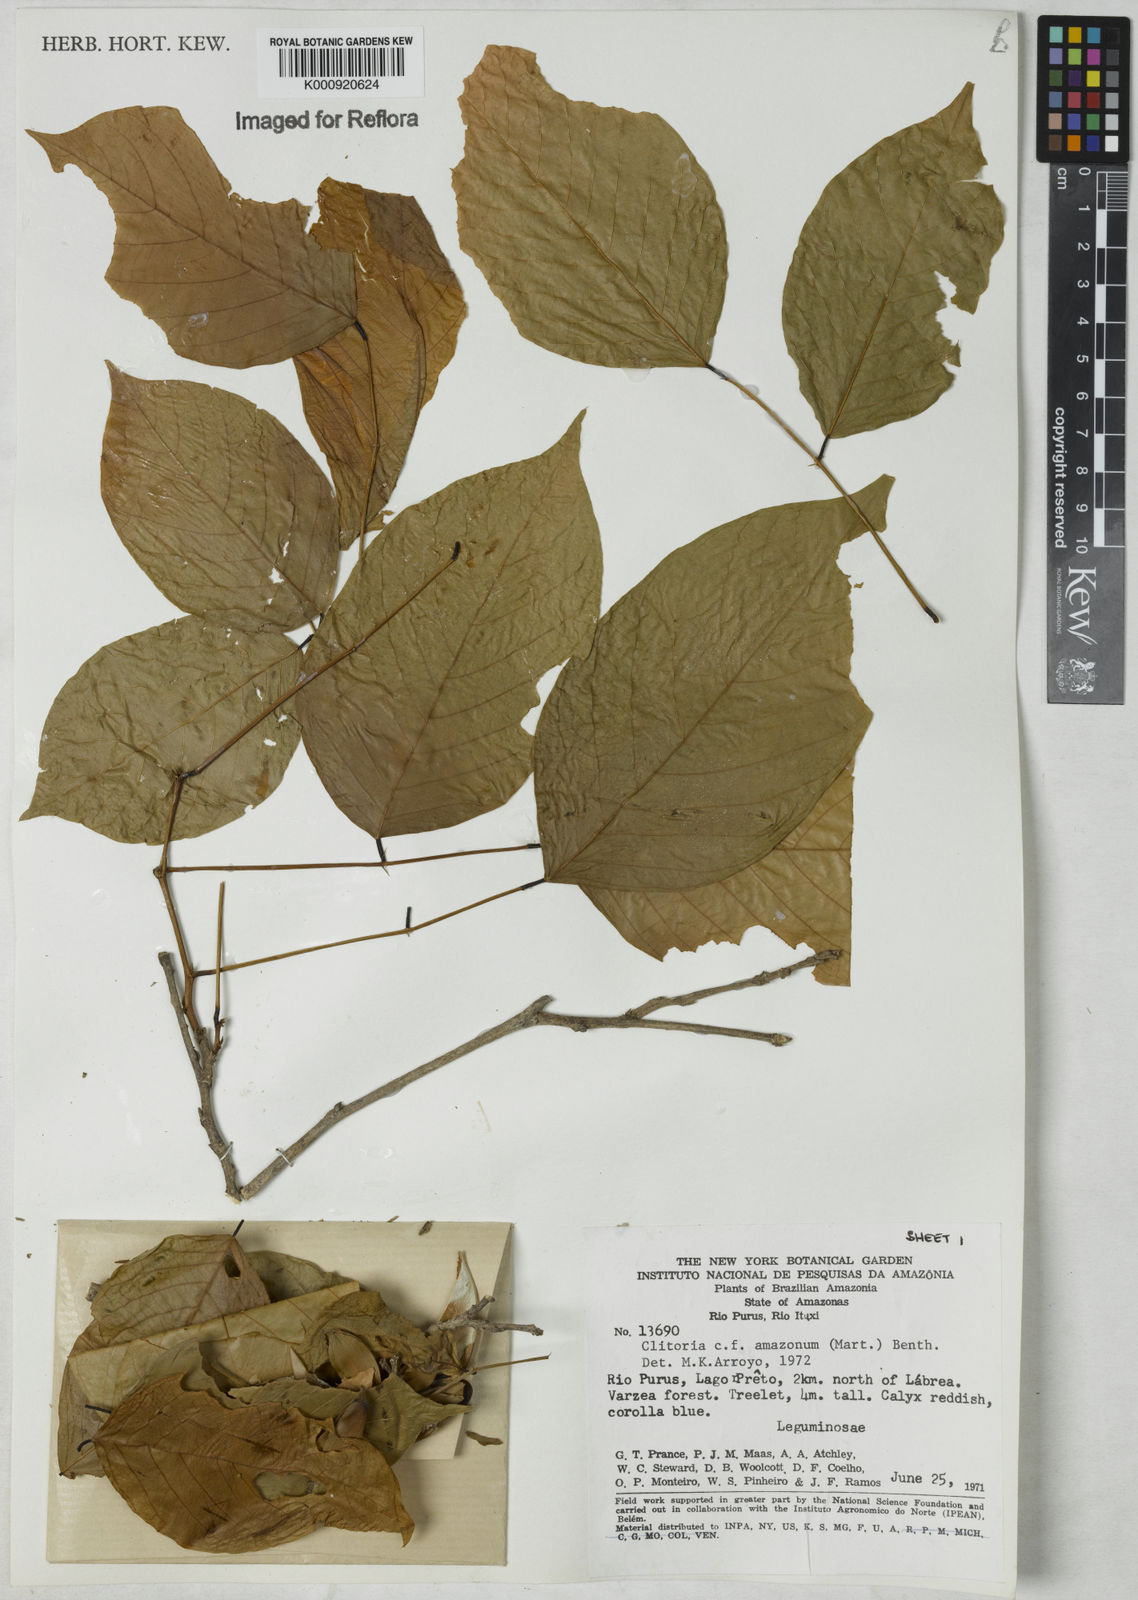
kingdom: Plantae
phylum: Tracheophyta
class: Magnoliopsida
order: Fabales
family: Fabaceae
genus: Clitoria
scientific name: Clitoria amazonum
